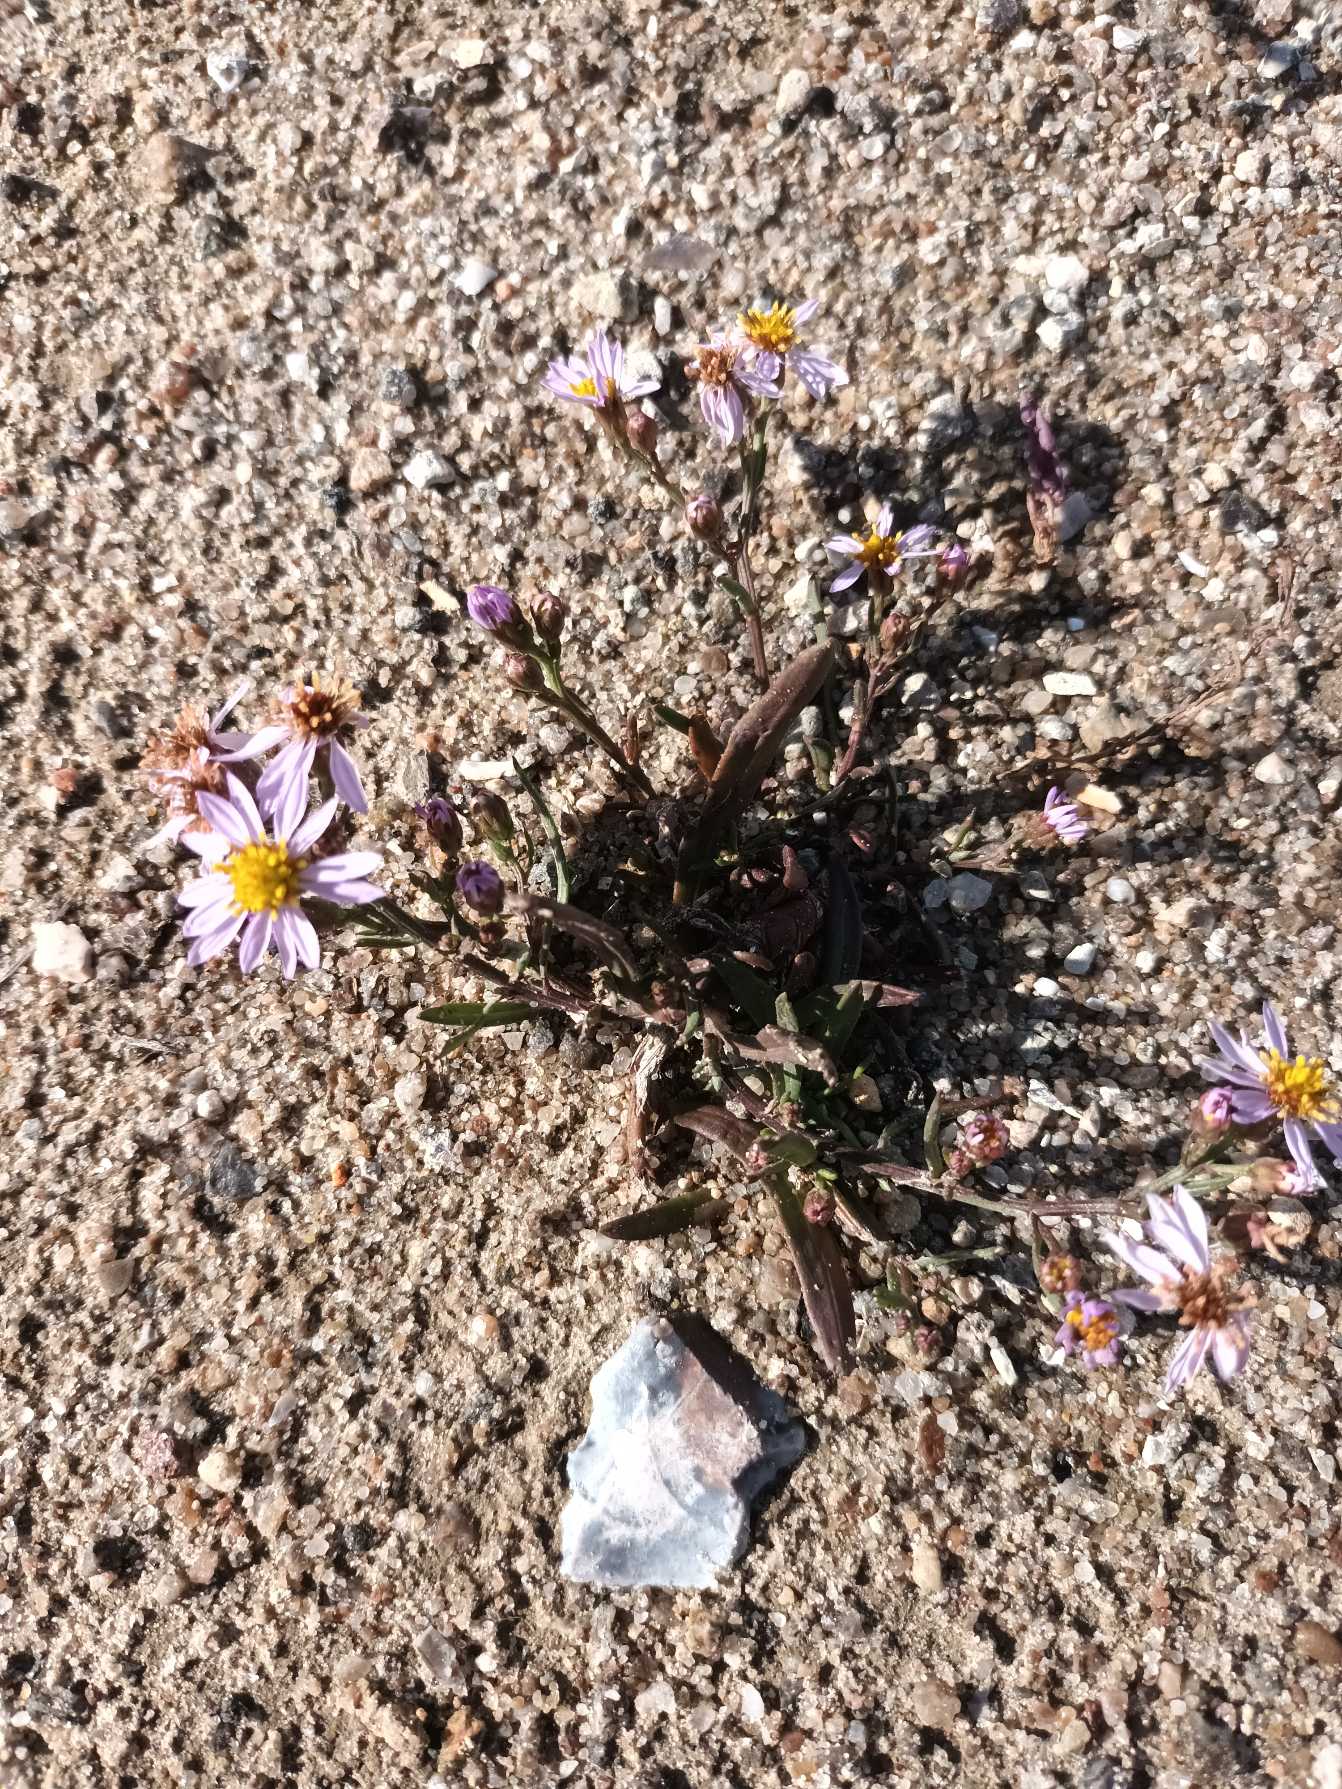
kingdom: Plantae
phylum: Tracheophyta
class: Magnoliopsida
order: Asterales
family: Asteraceae
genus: Tripolium
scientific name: Tripolium pannonicum
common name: Strandasters
